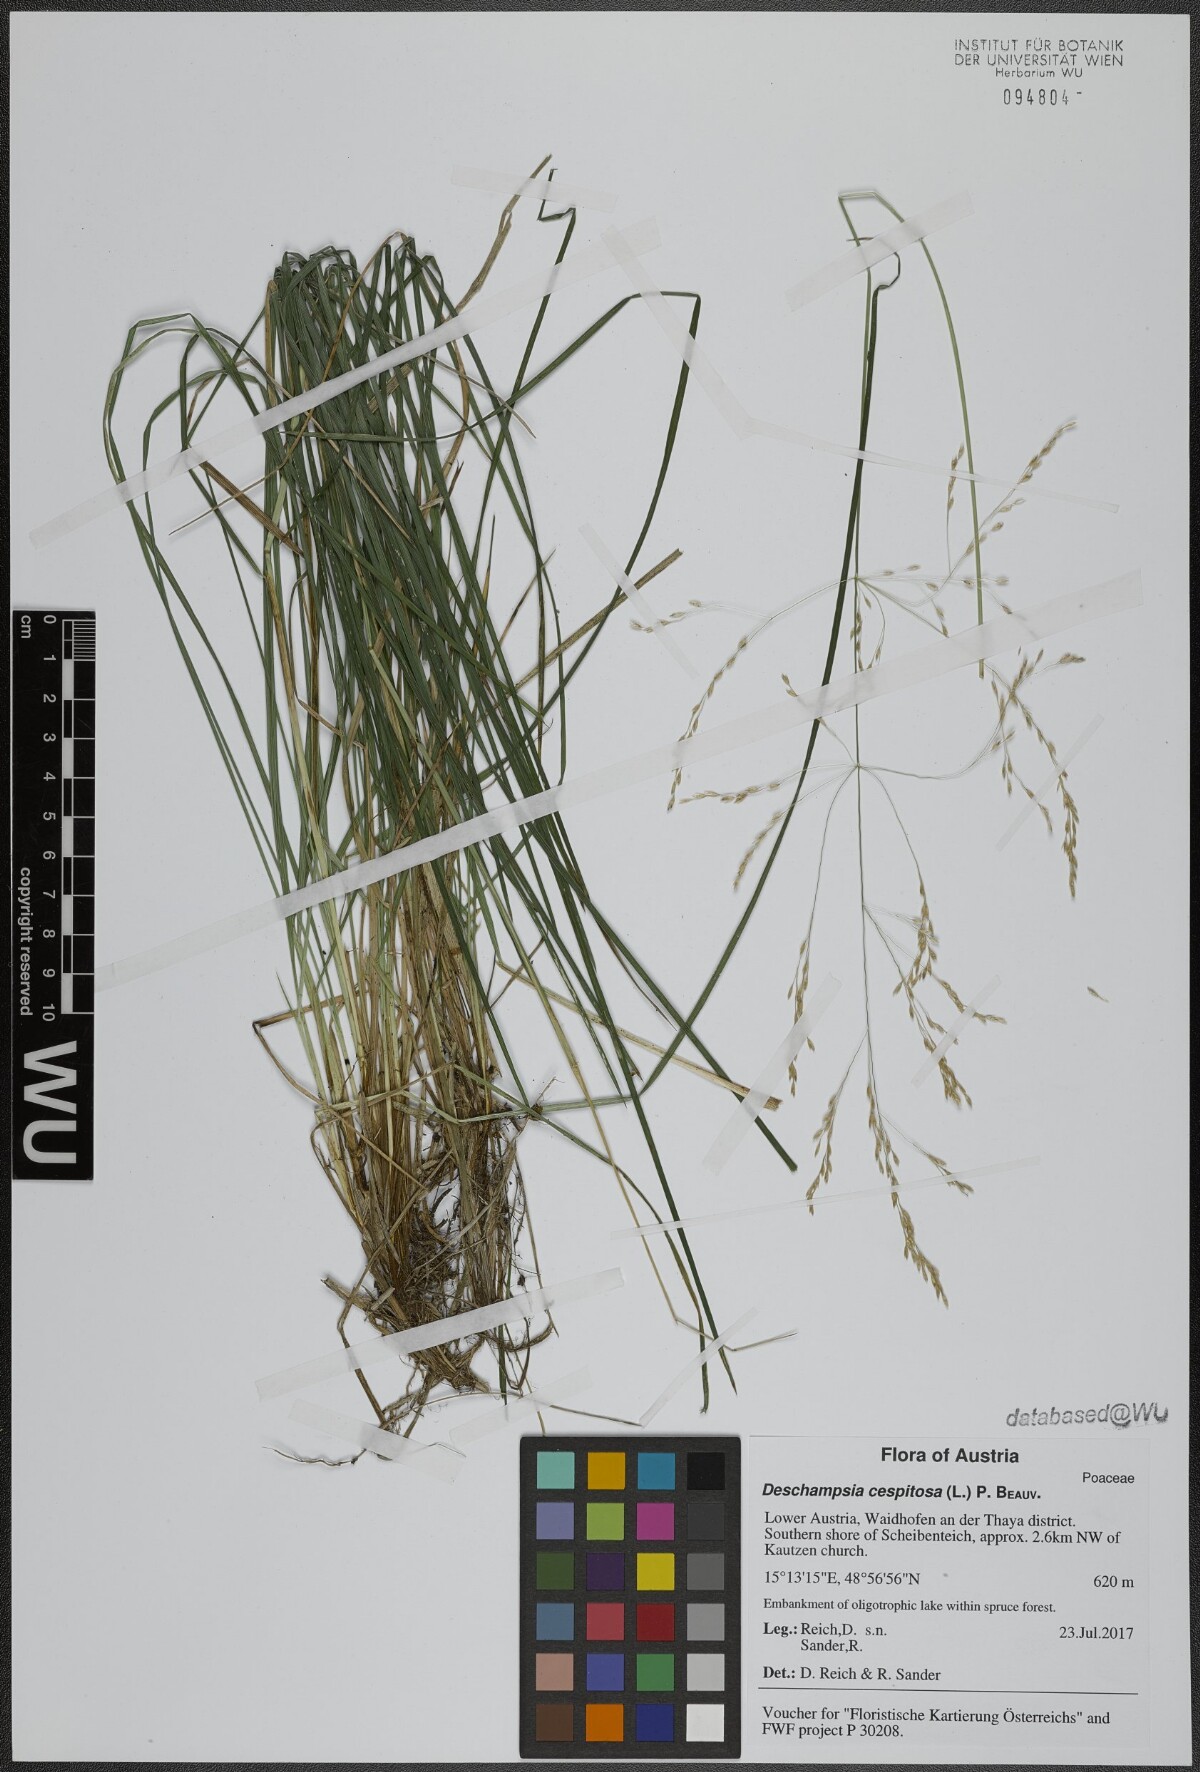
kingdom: Plantae
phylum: Tracheophyta
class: Liliopsida
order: Poales
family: Poaceae
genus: Deschampsia
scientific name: Deschampsia cespitosa
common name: Tufted hair-grass
